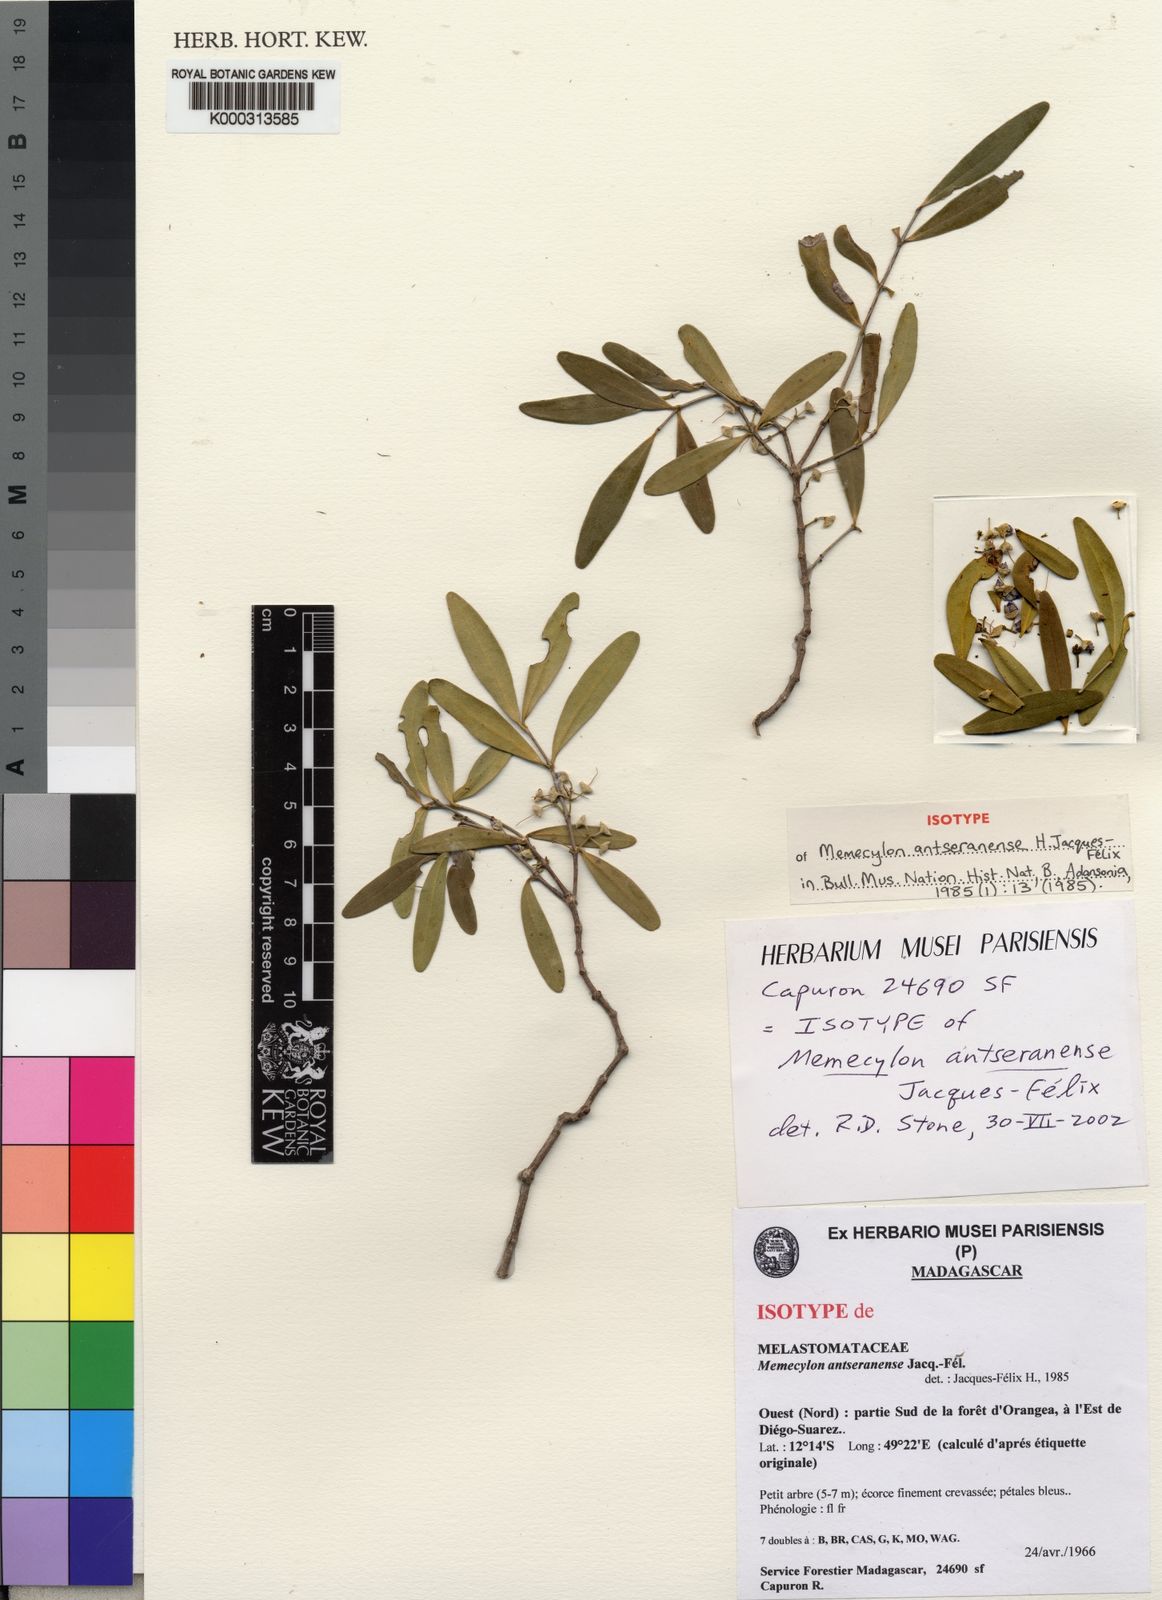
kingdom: Plantae
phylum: Tracheophyta
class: Magnoliopsida
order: Myrtales
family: Melastomataceae
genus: Memecylon
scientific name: Memecylon
